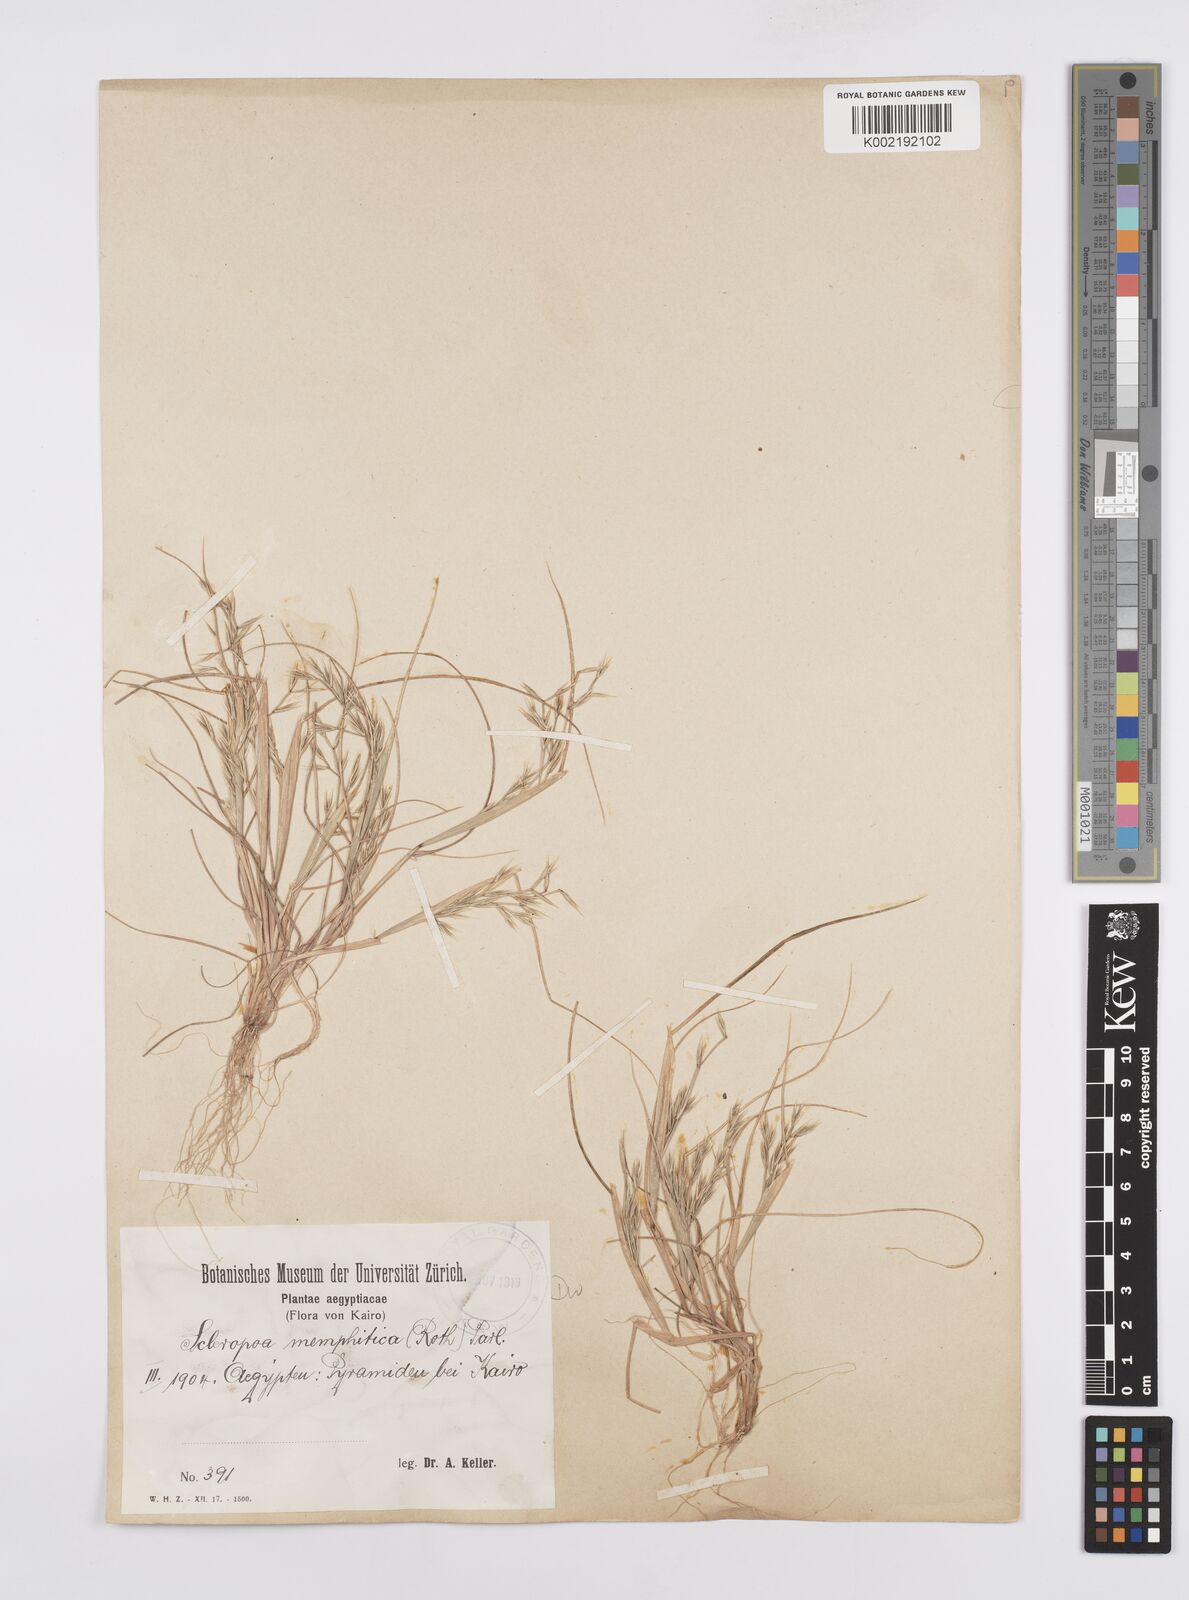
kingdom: Plantae
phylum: Tracheophyta
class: Liliopsida
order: Poales
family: Poaceae
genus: Cutandia
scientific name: Cutandia memphitica
